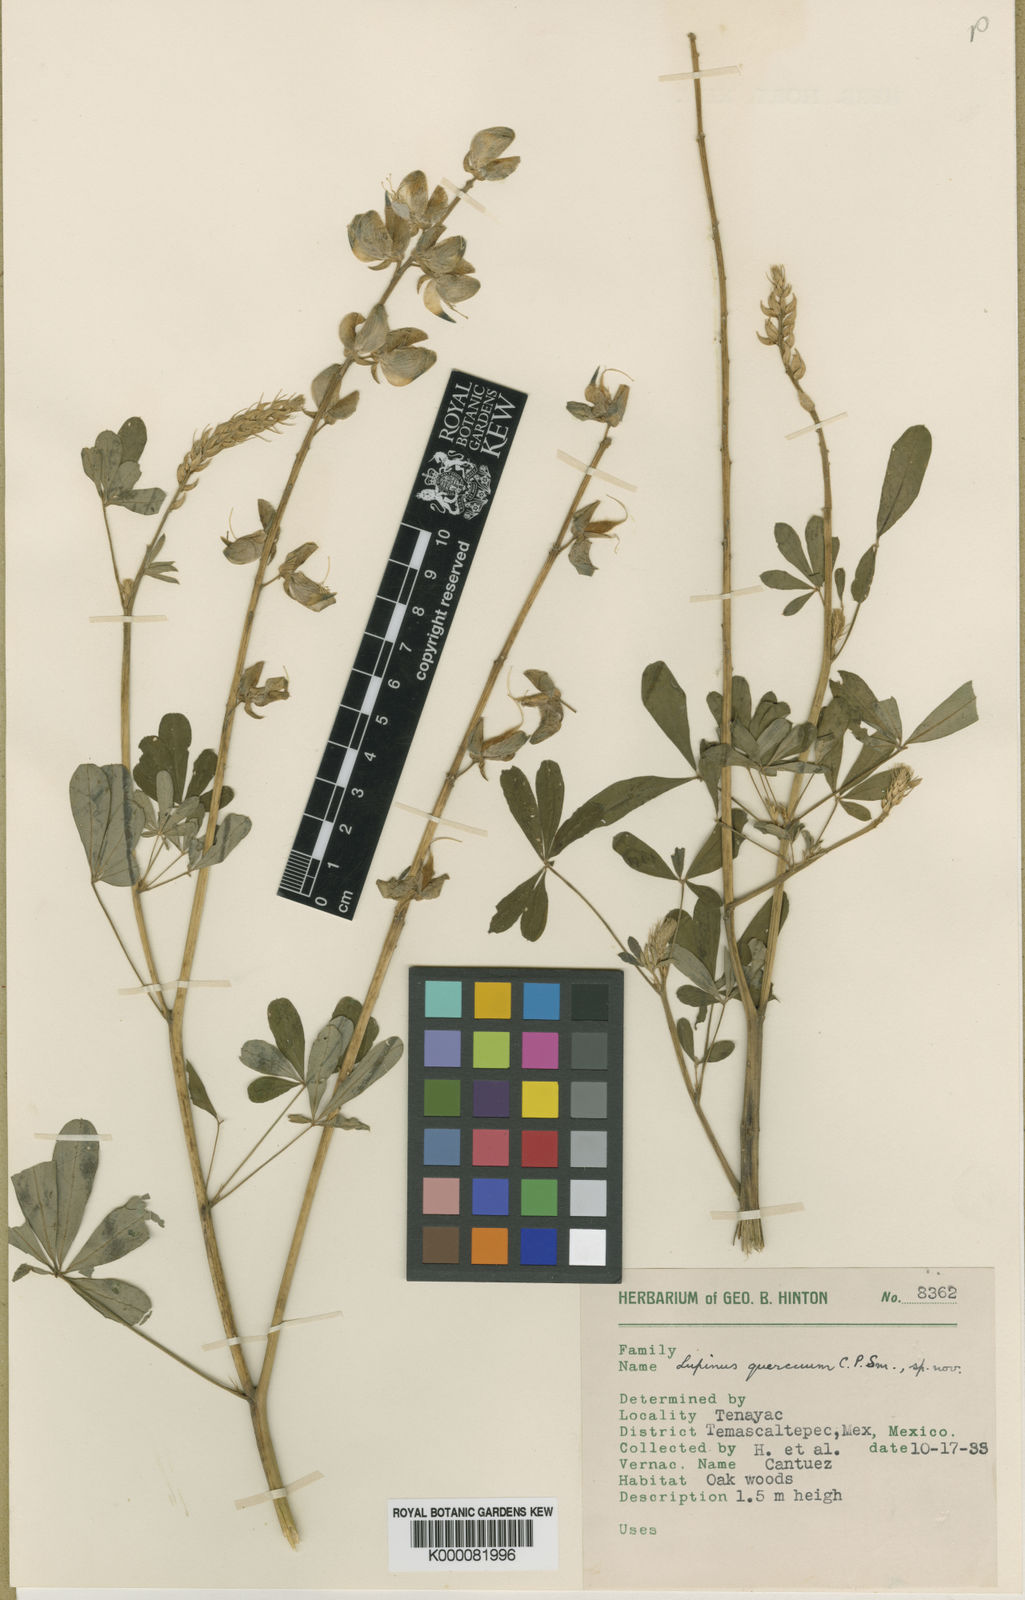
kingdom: Plantae
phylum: Tracheophyta
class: Magnoliopsida
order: Fabales
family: Fabaceae
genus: Lupinus
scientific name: Lupinus quercuum
